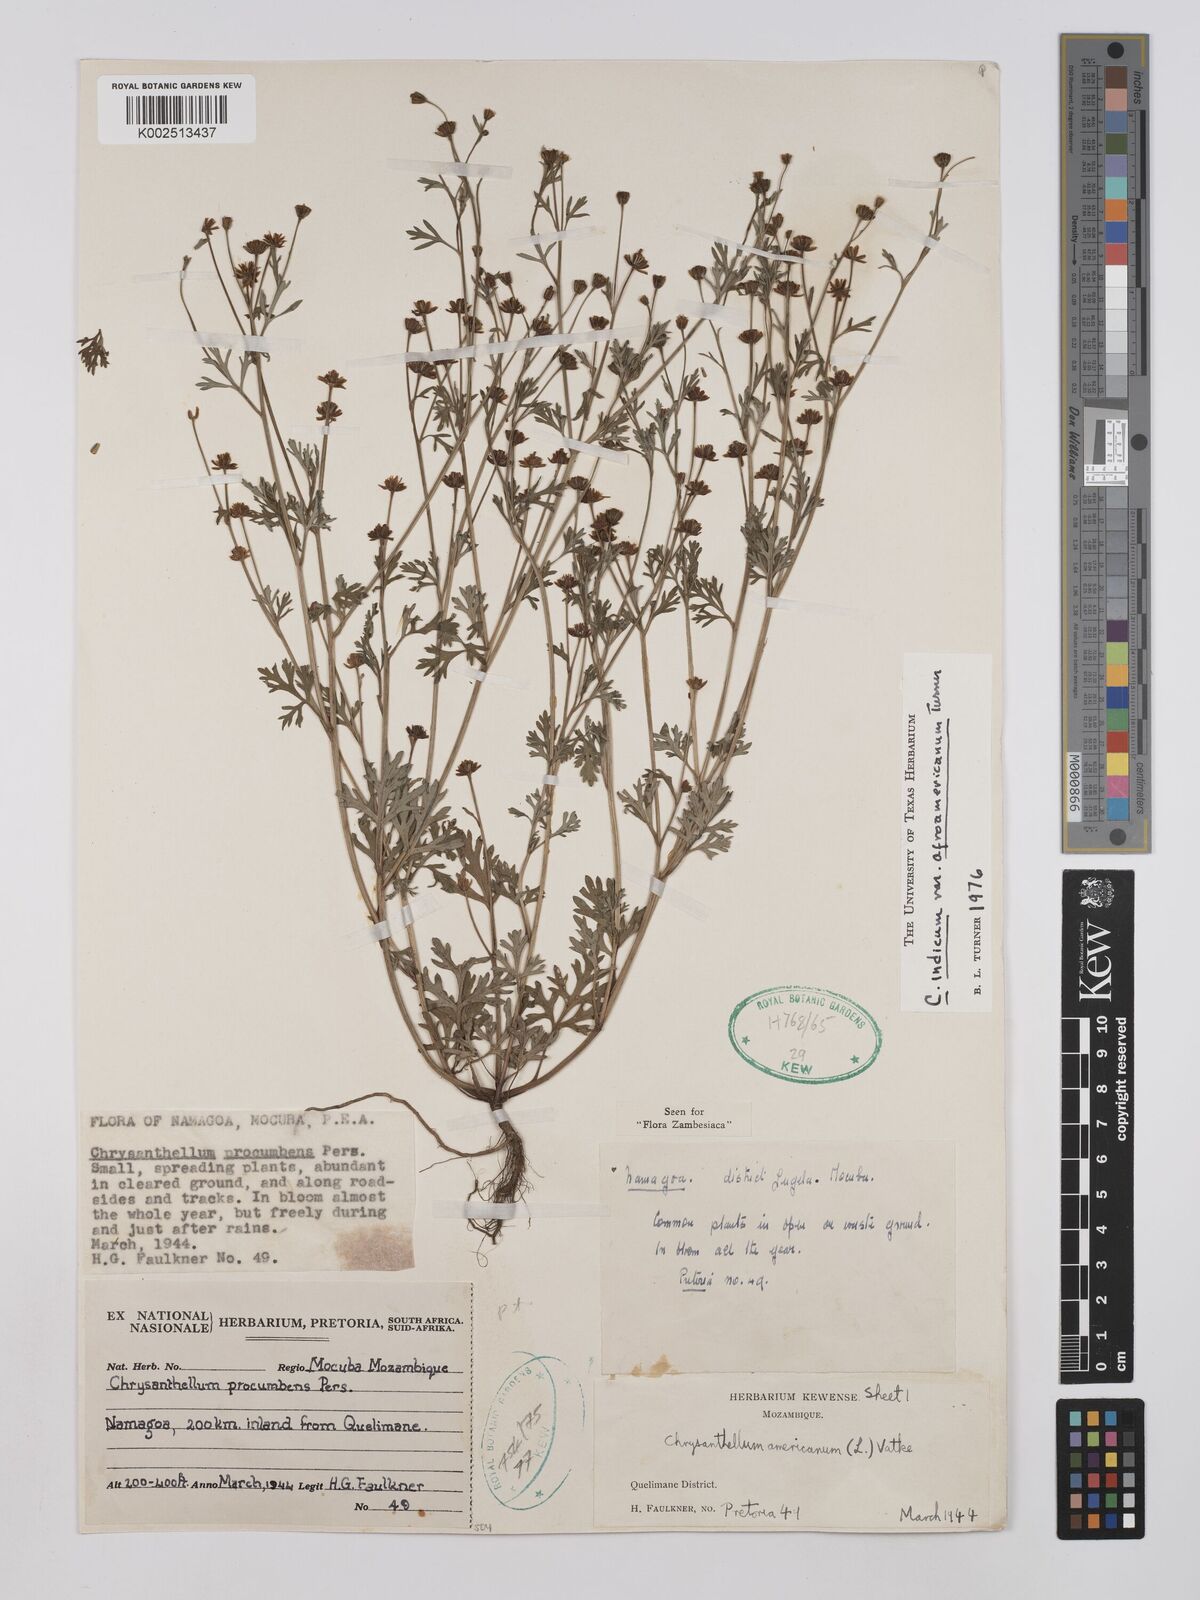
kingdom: Plantae
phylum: Tracheophyta
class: Magnoliopsida
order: Asterales
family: Asteraceae
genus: Chrysanthellum
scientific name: Chrysanthellum indicum
